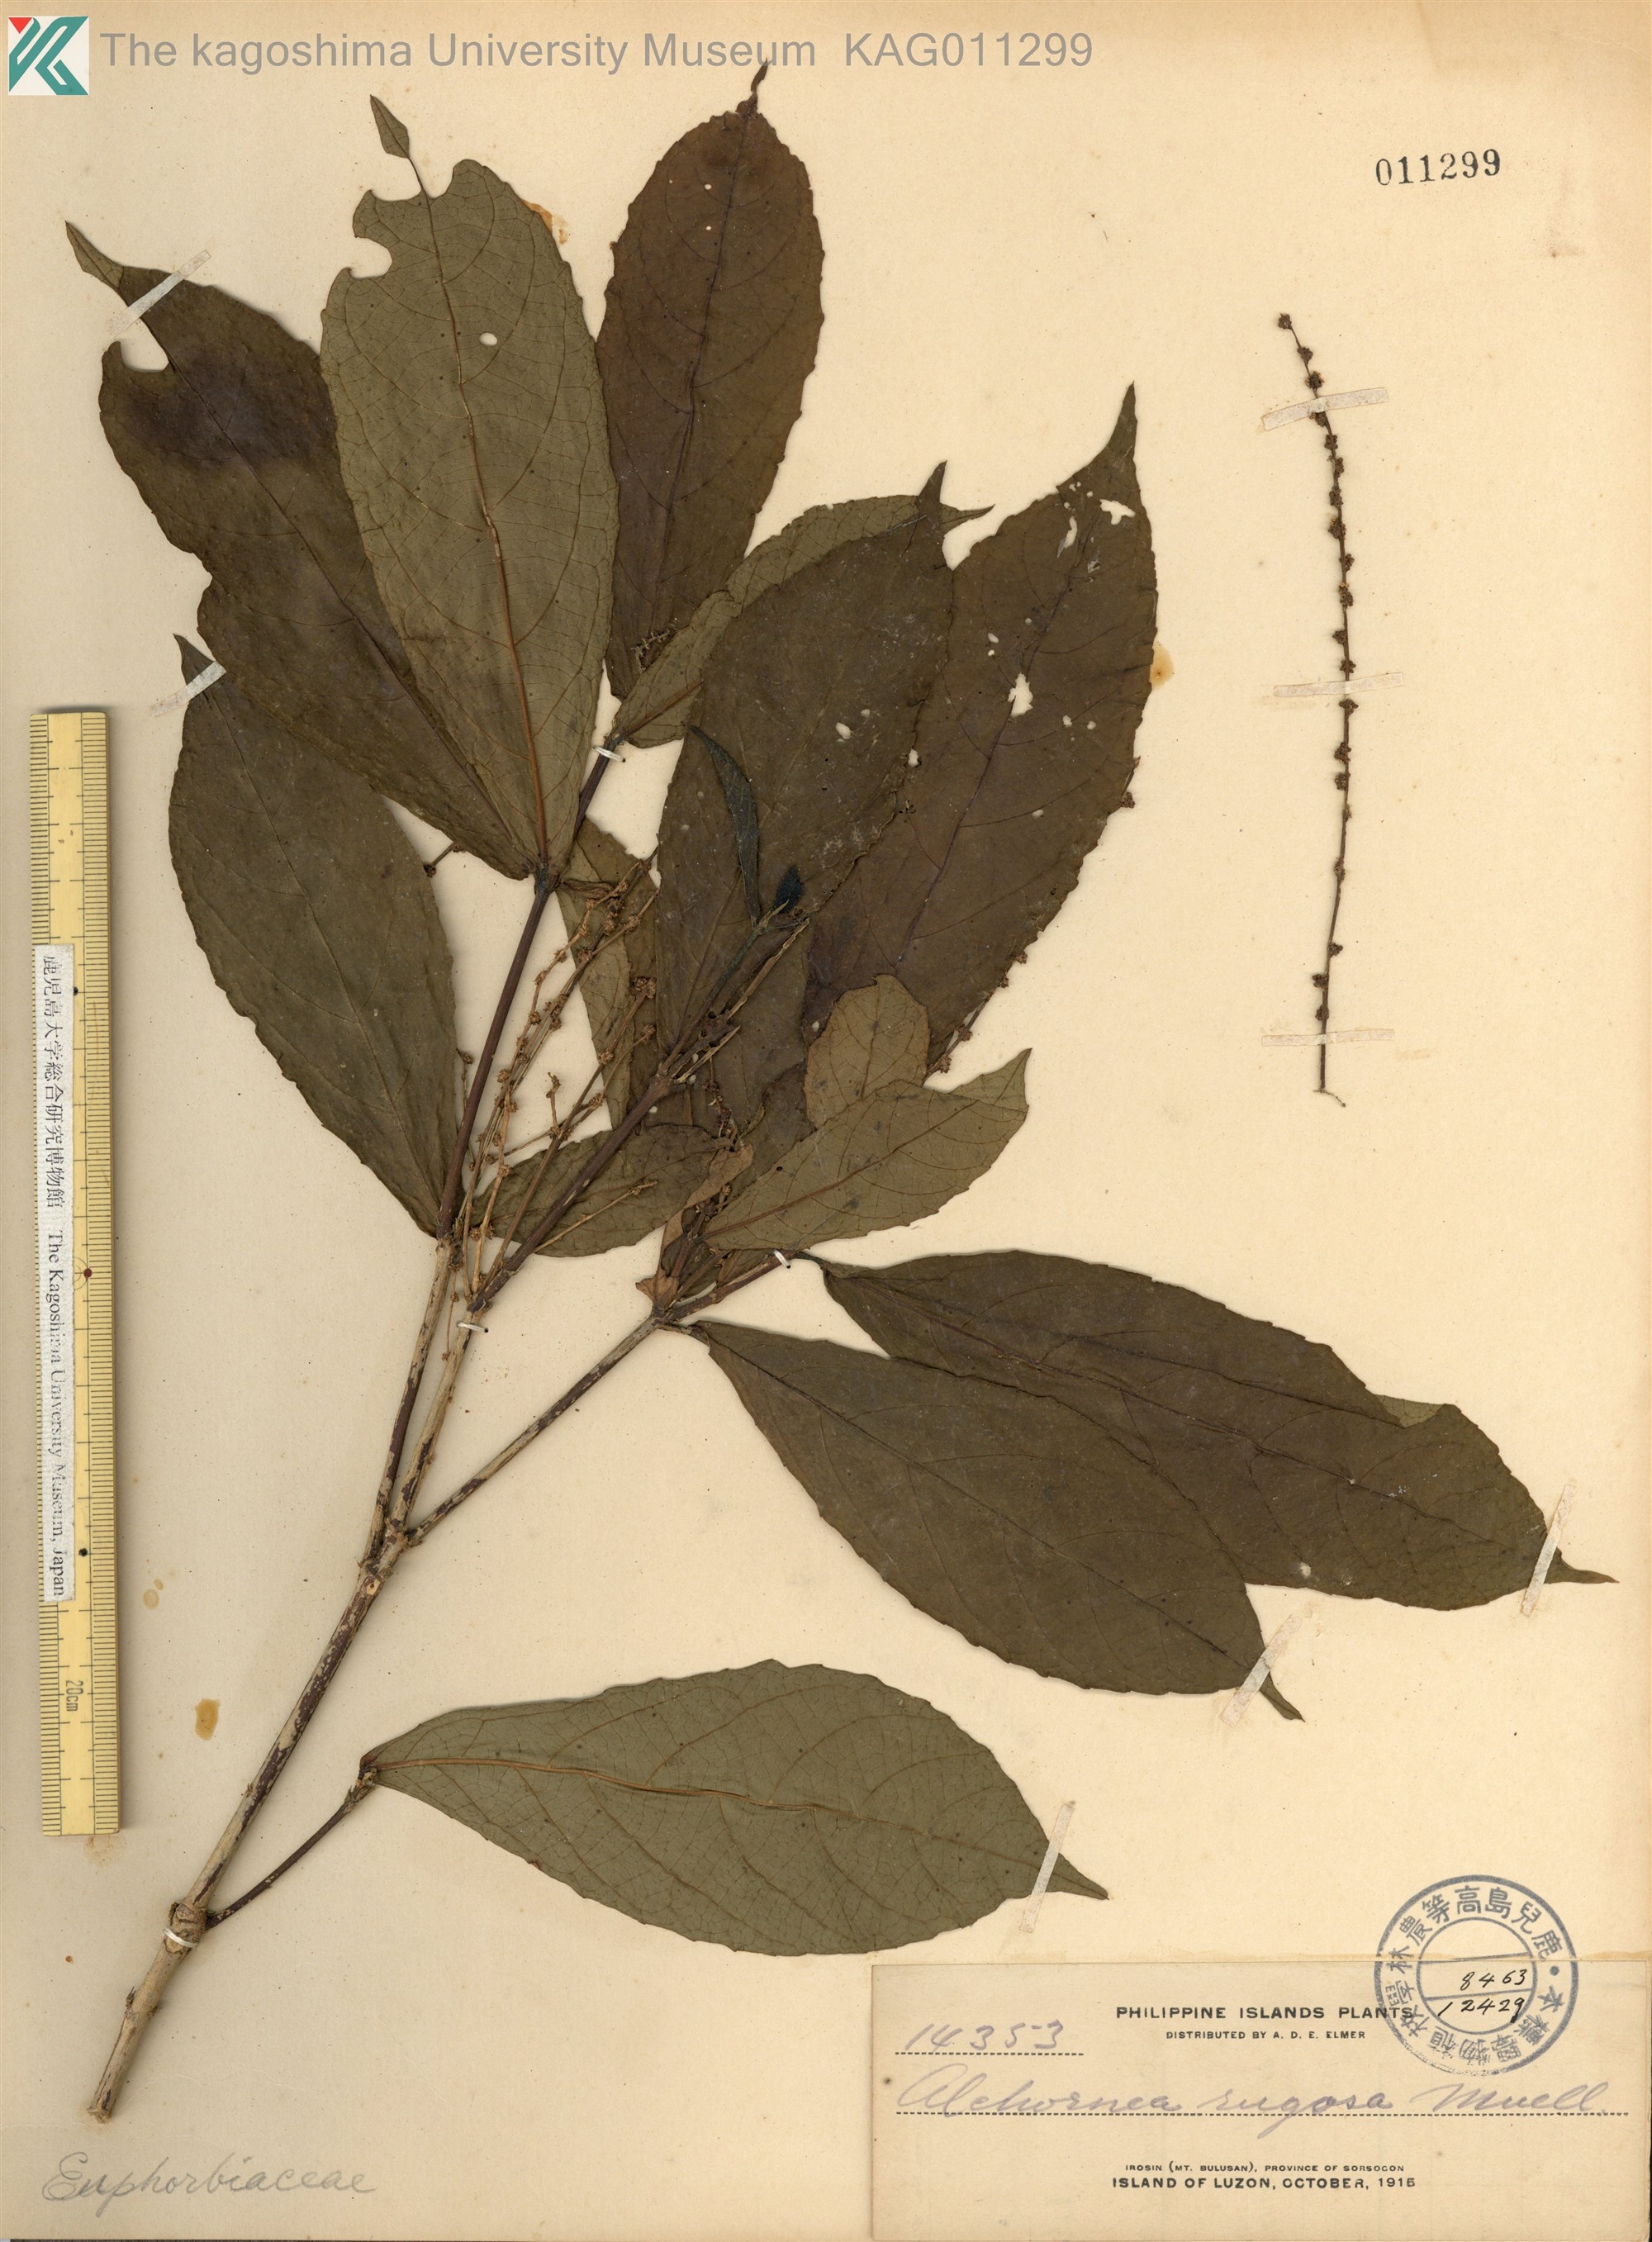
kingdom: Plantae
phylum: Tracheophyta
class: Magnoliopsida
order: Malpighiales
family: Euphorbiaceae
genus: Alchornea
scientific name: Alchornea rugosa
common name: Alchorntree
